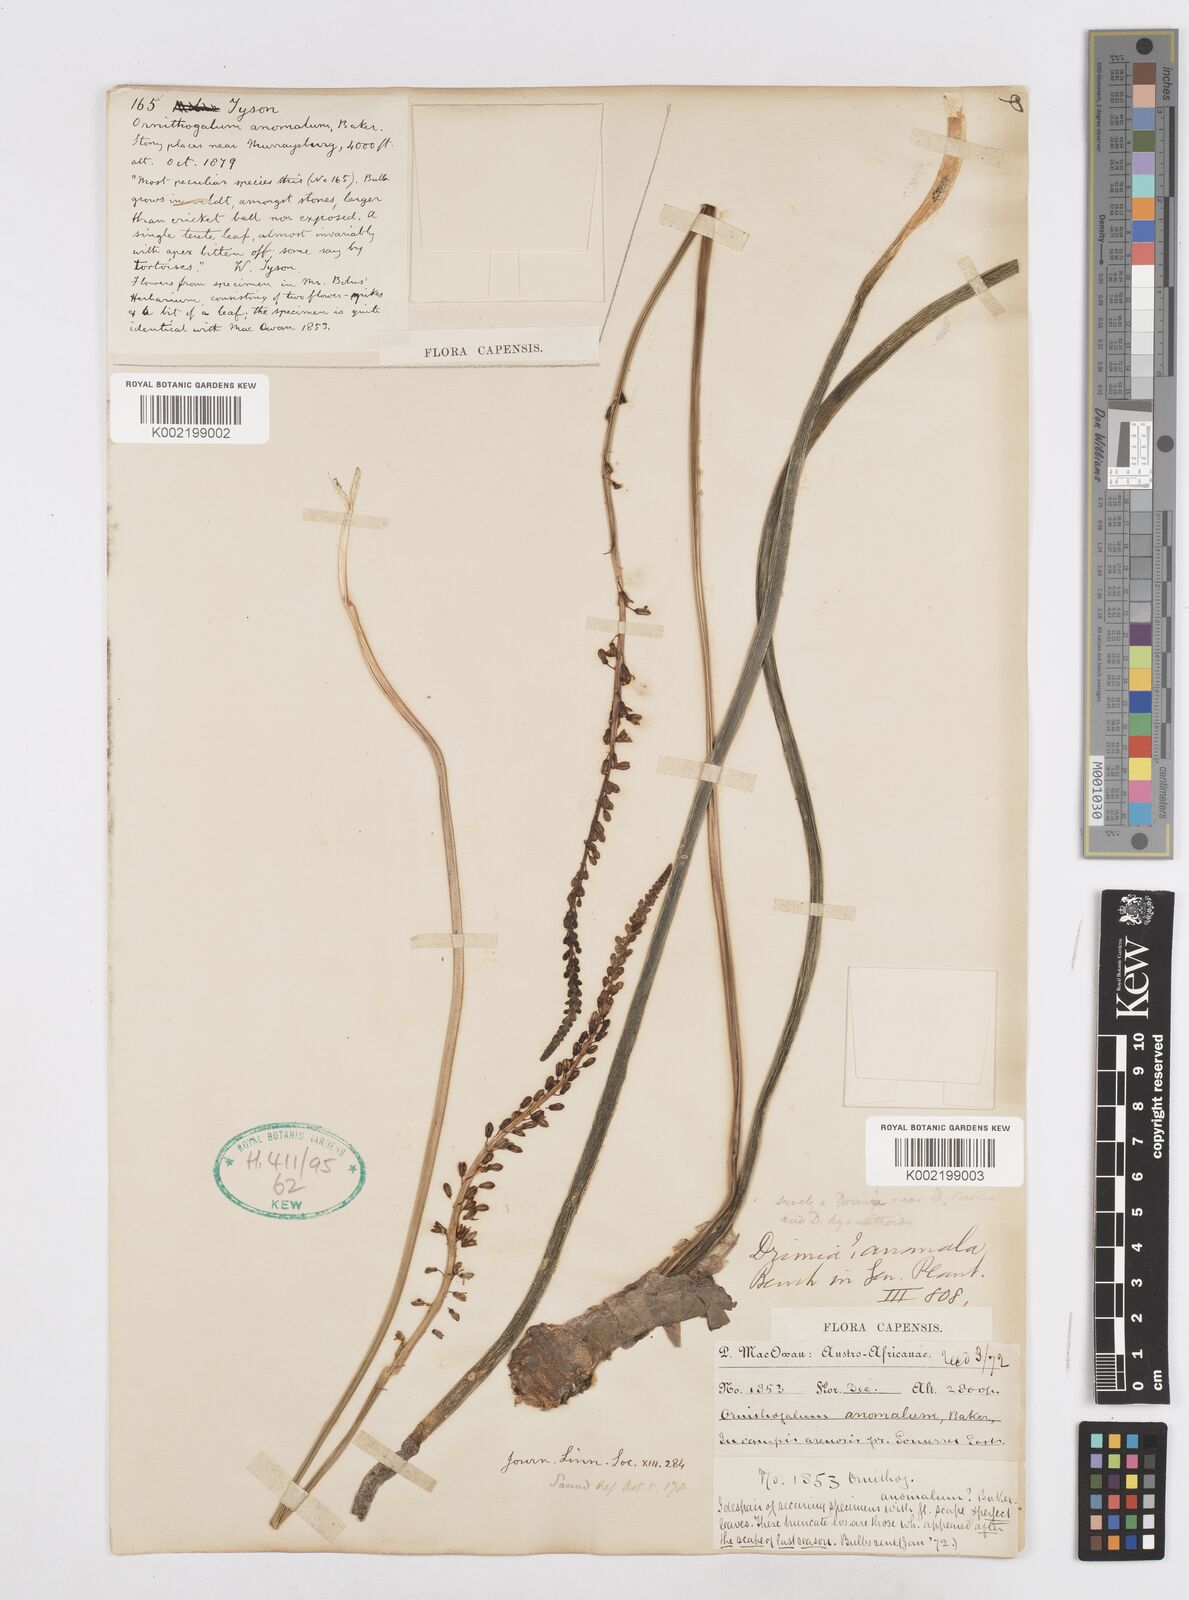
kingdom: Plantae
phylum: Tracheophyta
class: Liliopsida
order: Asparagales
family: Asparagaceae
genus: Drimia
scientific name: Drimia anomala
